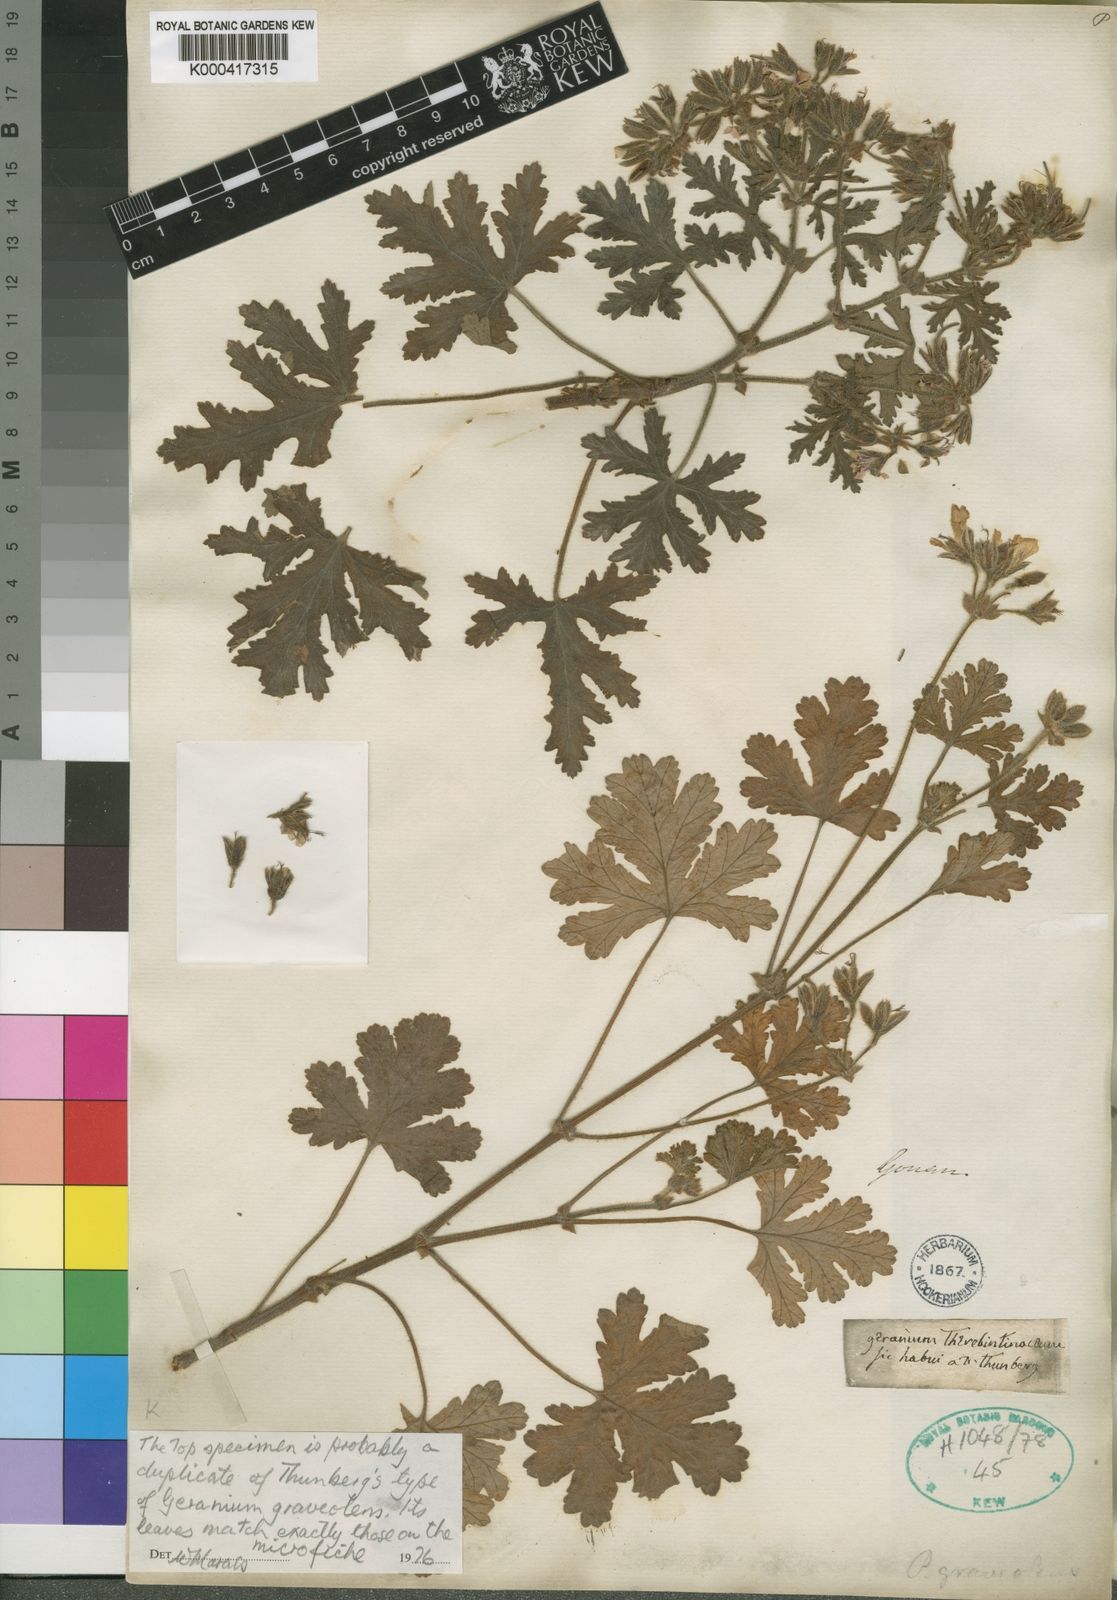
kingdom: Plantae
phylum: Tracheophyta
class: Magnoliopsida
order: Geraniales
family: Geraniaceae
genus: Pelargonium
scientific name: Pelargonium
